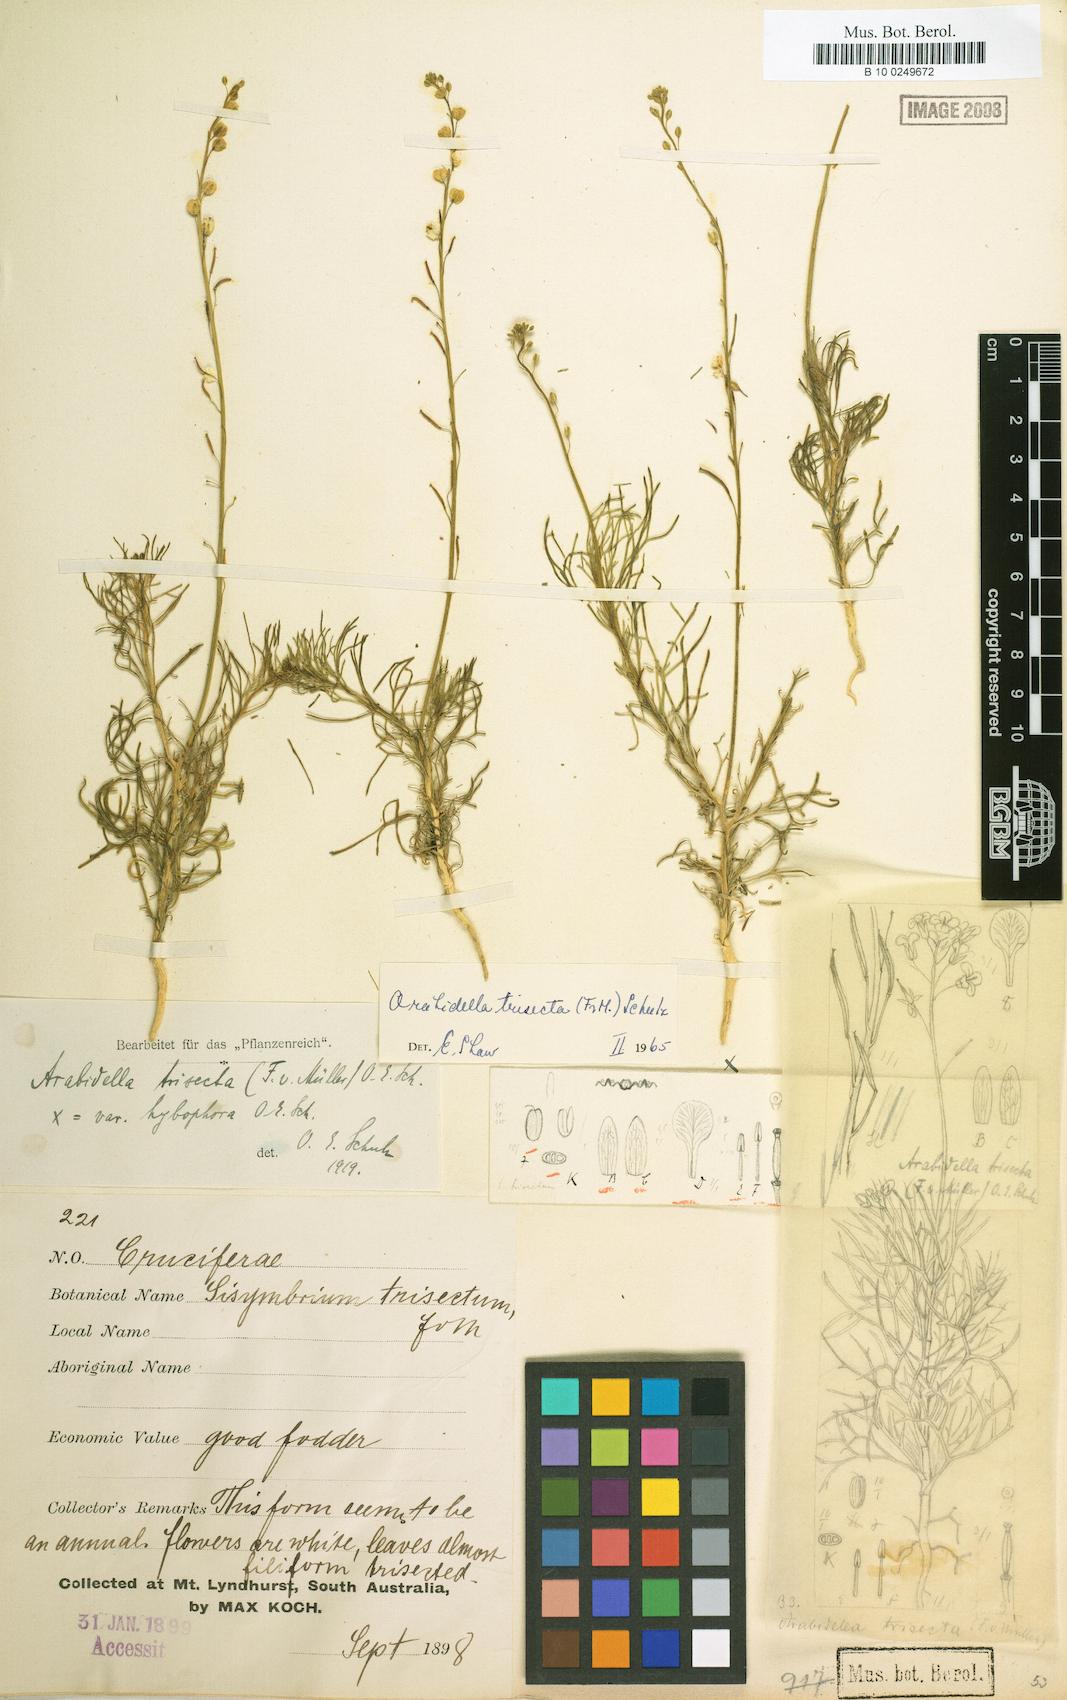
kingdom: Plantae
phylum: Tracheophyta
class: Magnoliopsida
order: Brassicales
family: Brassicaceae
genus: Arabidella
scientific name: Arabidella trisecta
